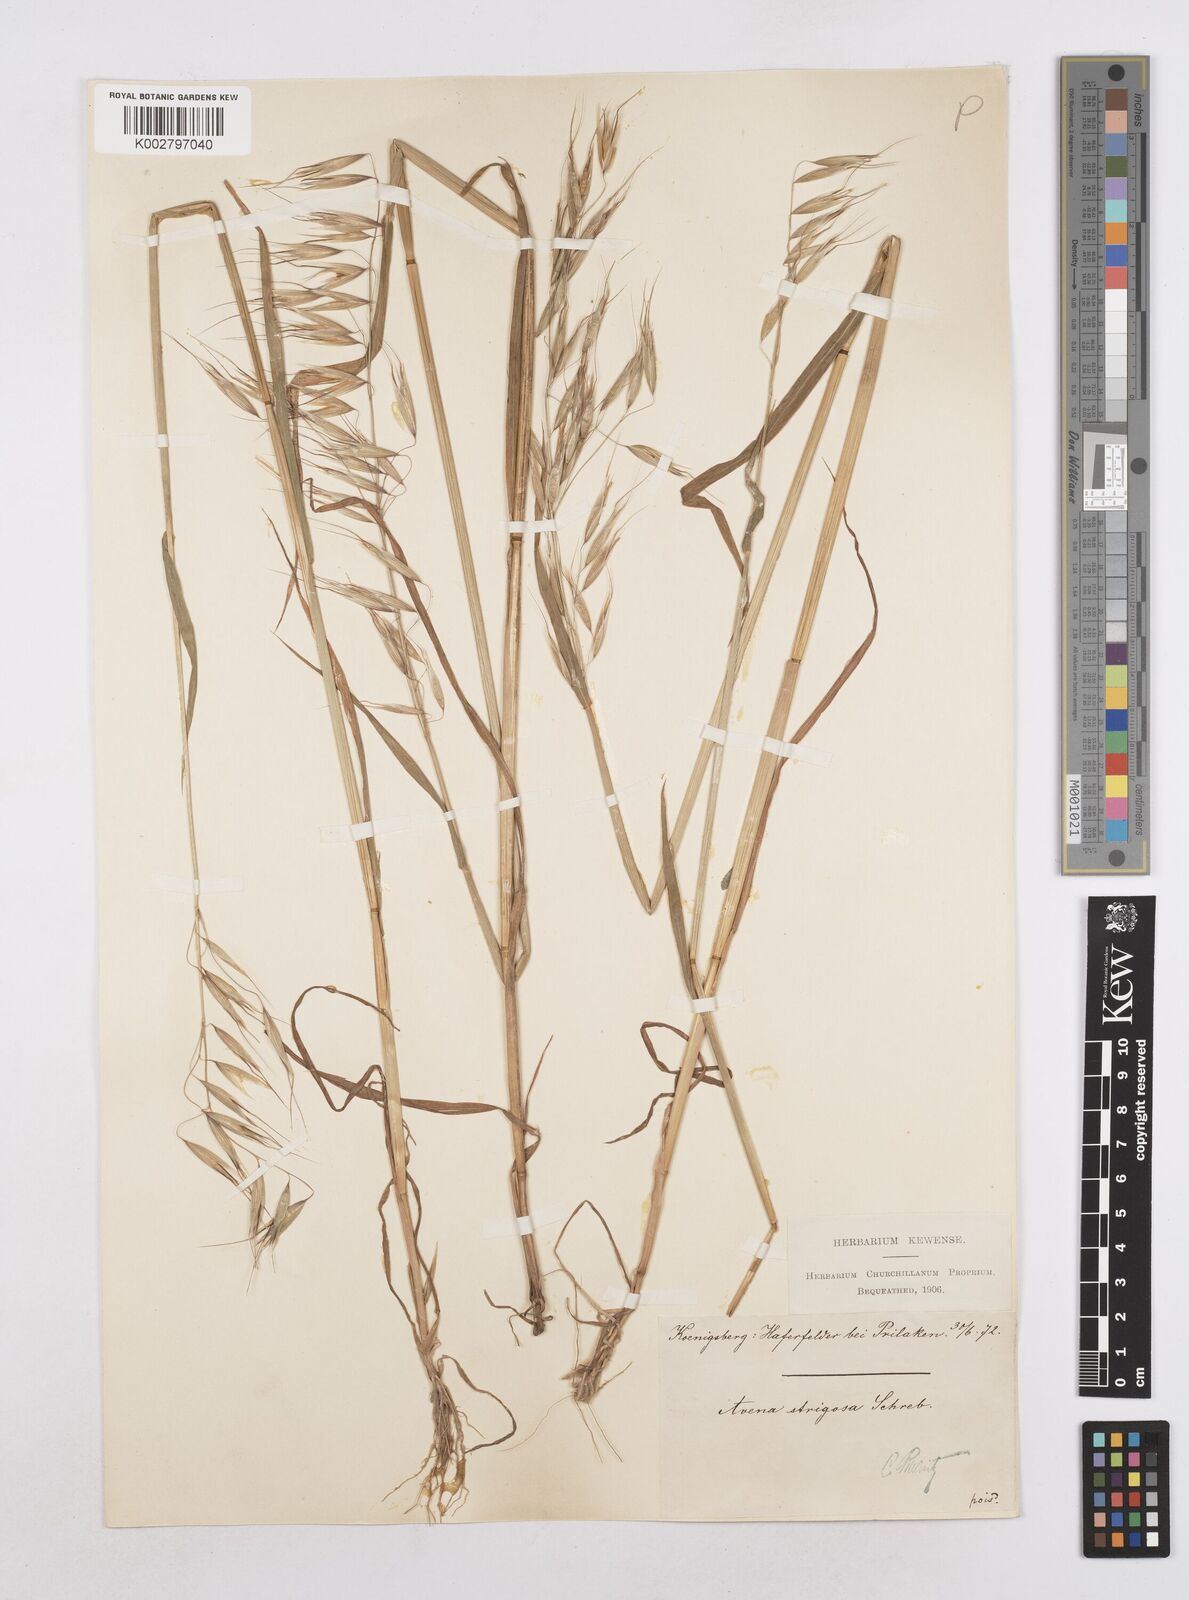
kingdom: Plantae
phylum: Tracheophyta
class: Liliopsida
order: Poales
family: Poaceae
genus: Avena
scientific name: Avena strigosa
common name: Bristle oat
